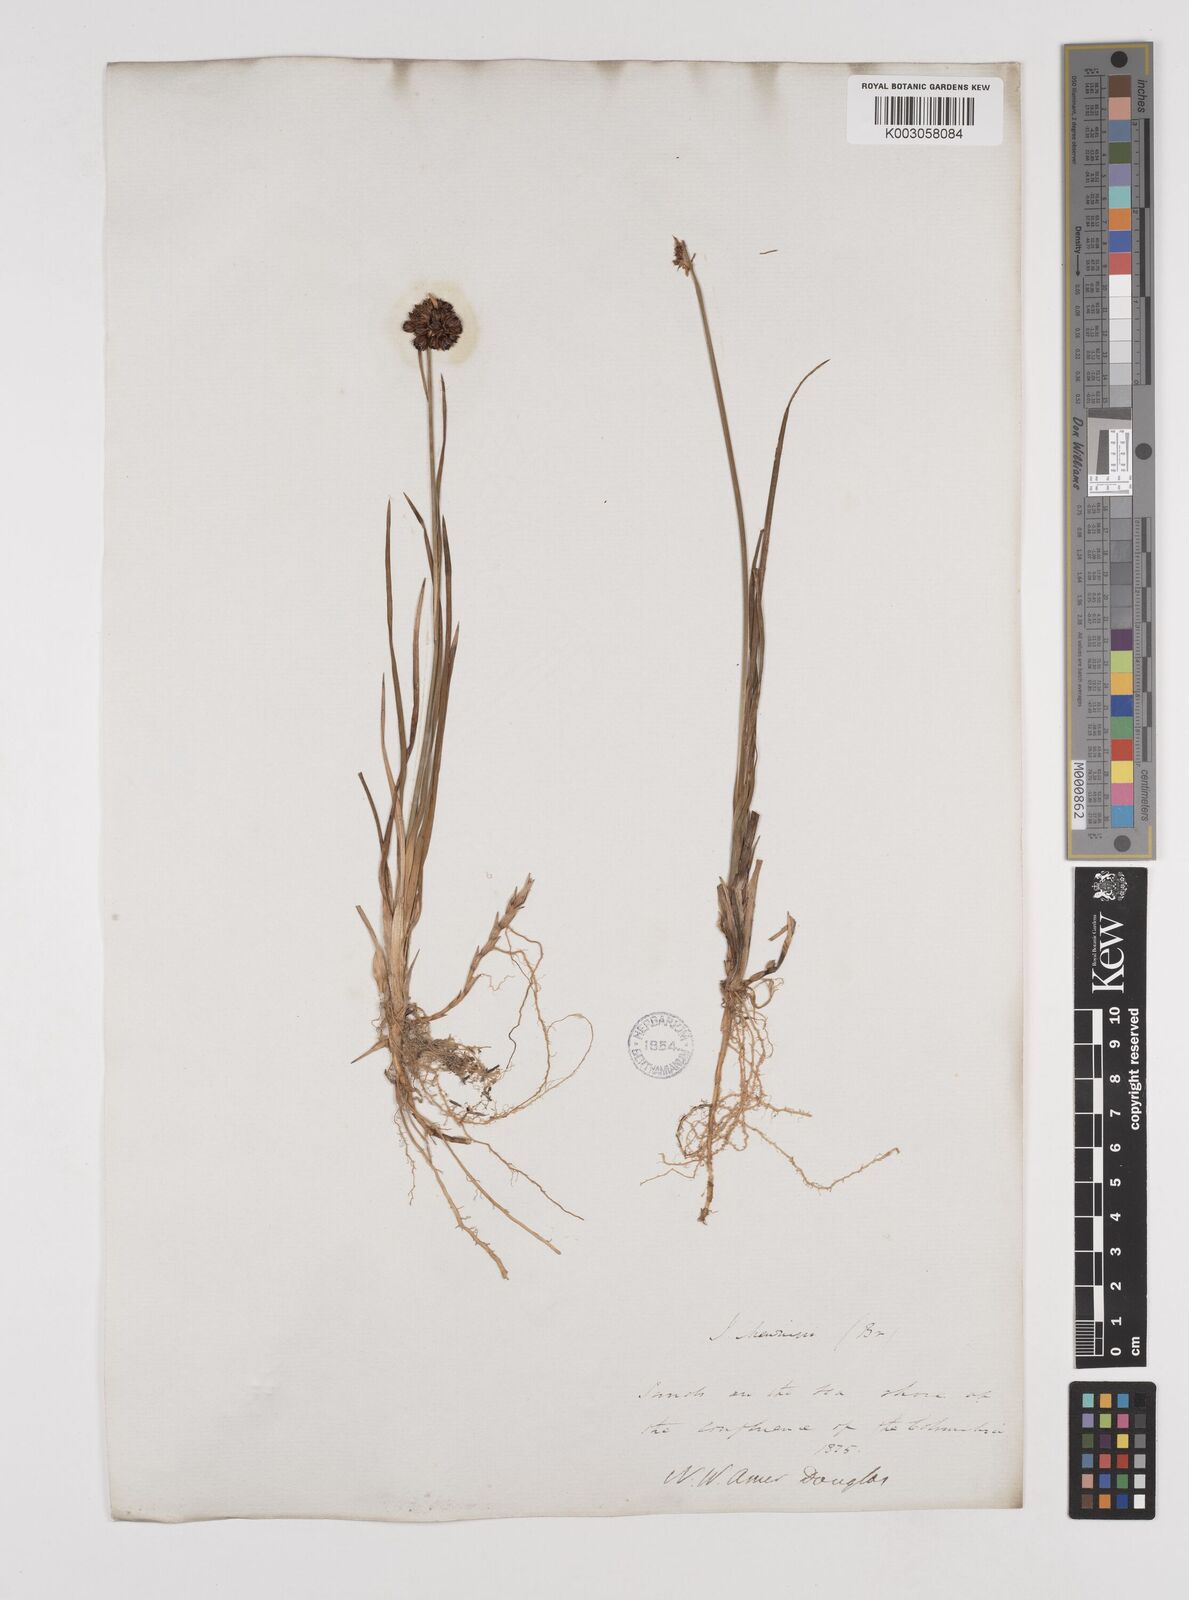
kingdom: Plantae
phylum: Tracheophyta
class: Liliopsida
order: Poales
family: Juncaceae
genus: Juncus
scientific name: Juncus falcatus
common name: Sickle-leaf rush
